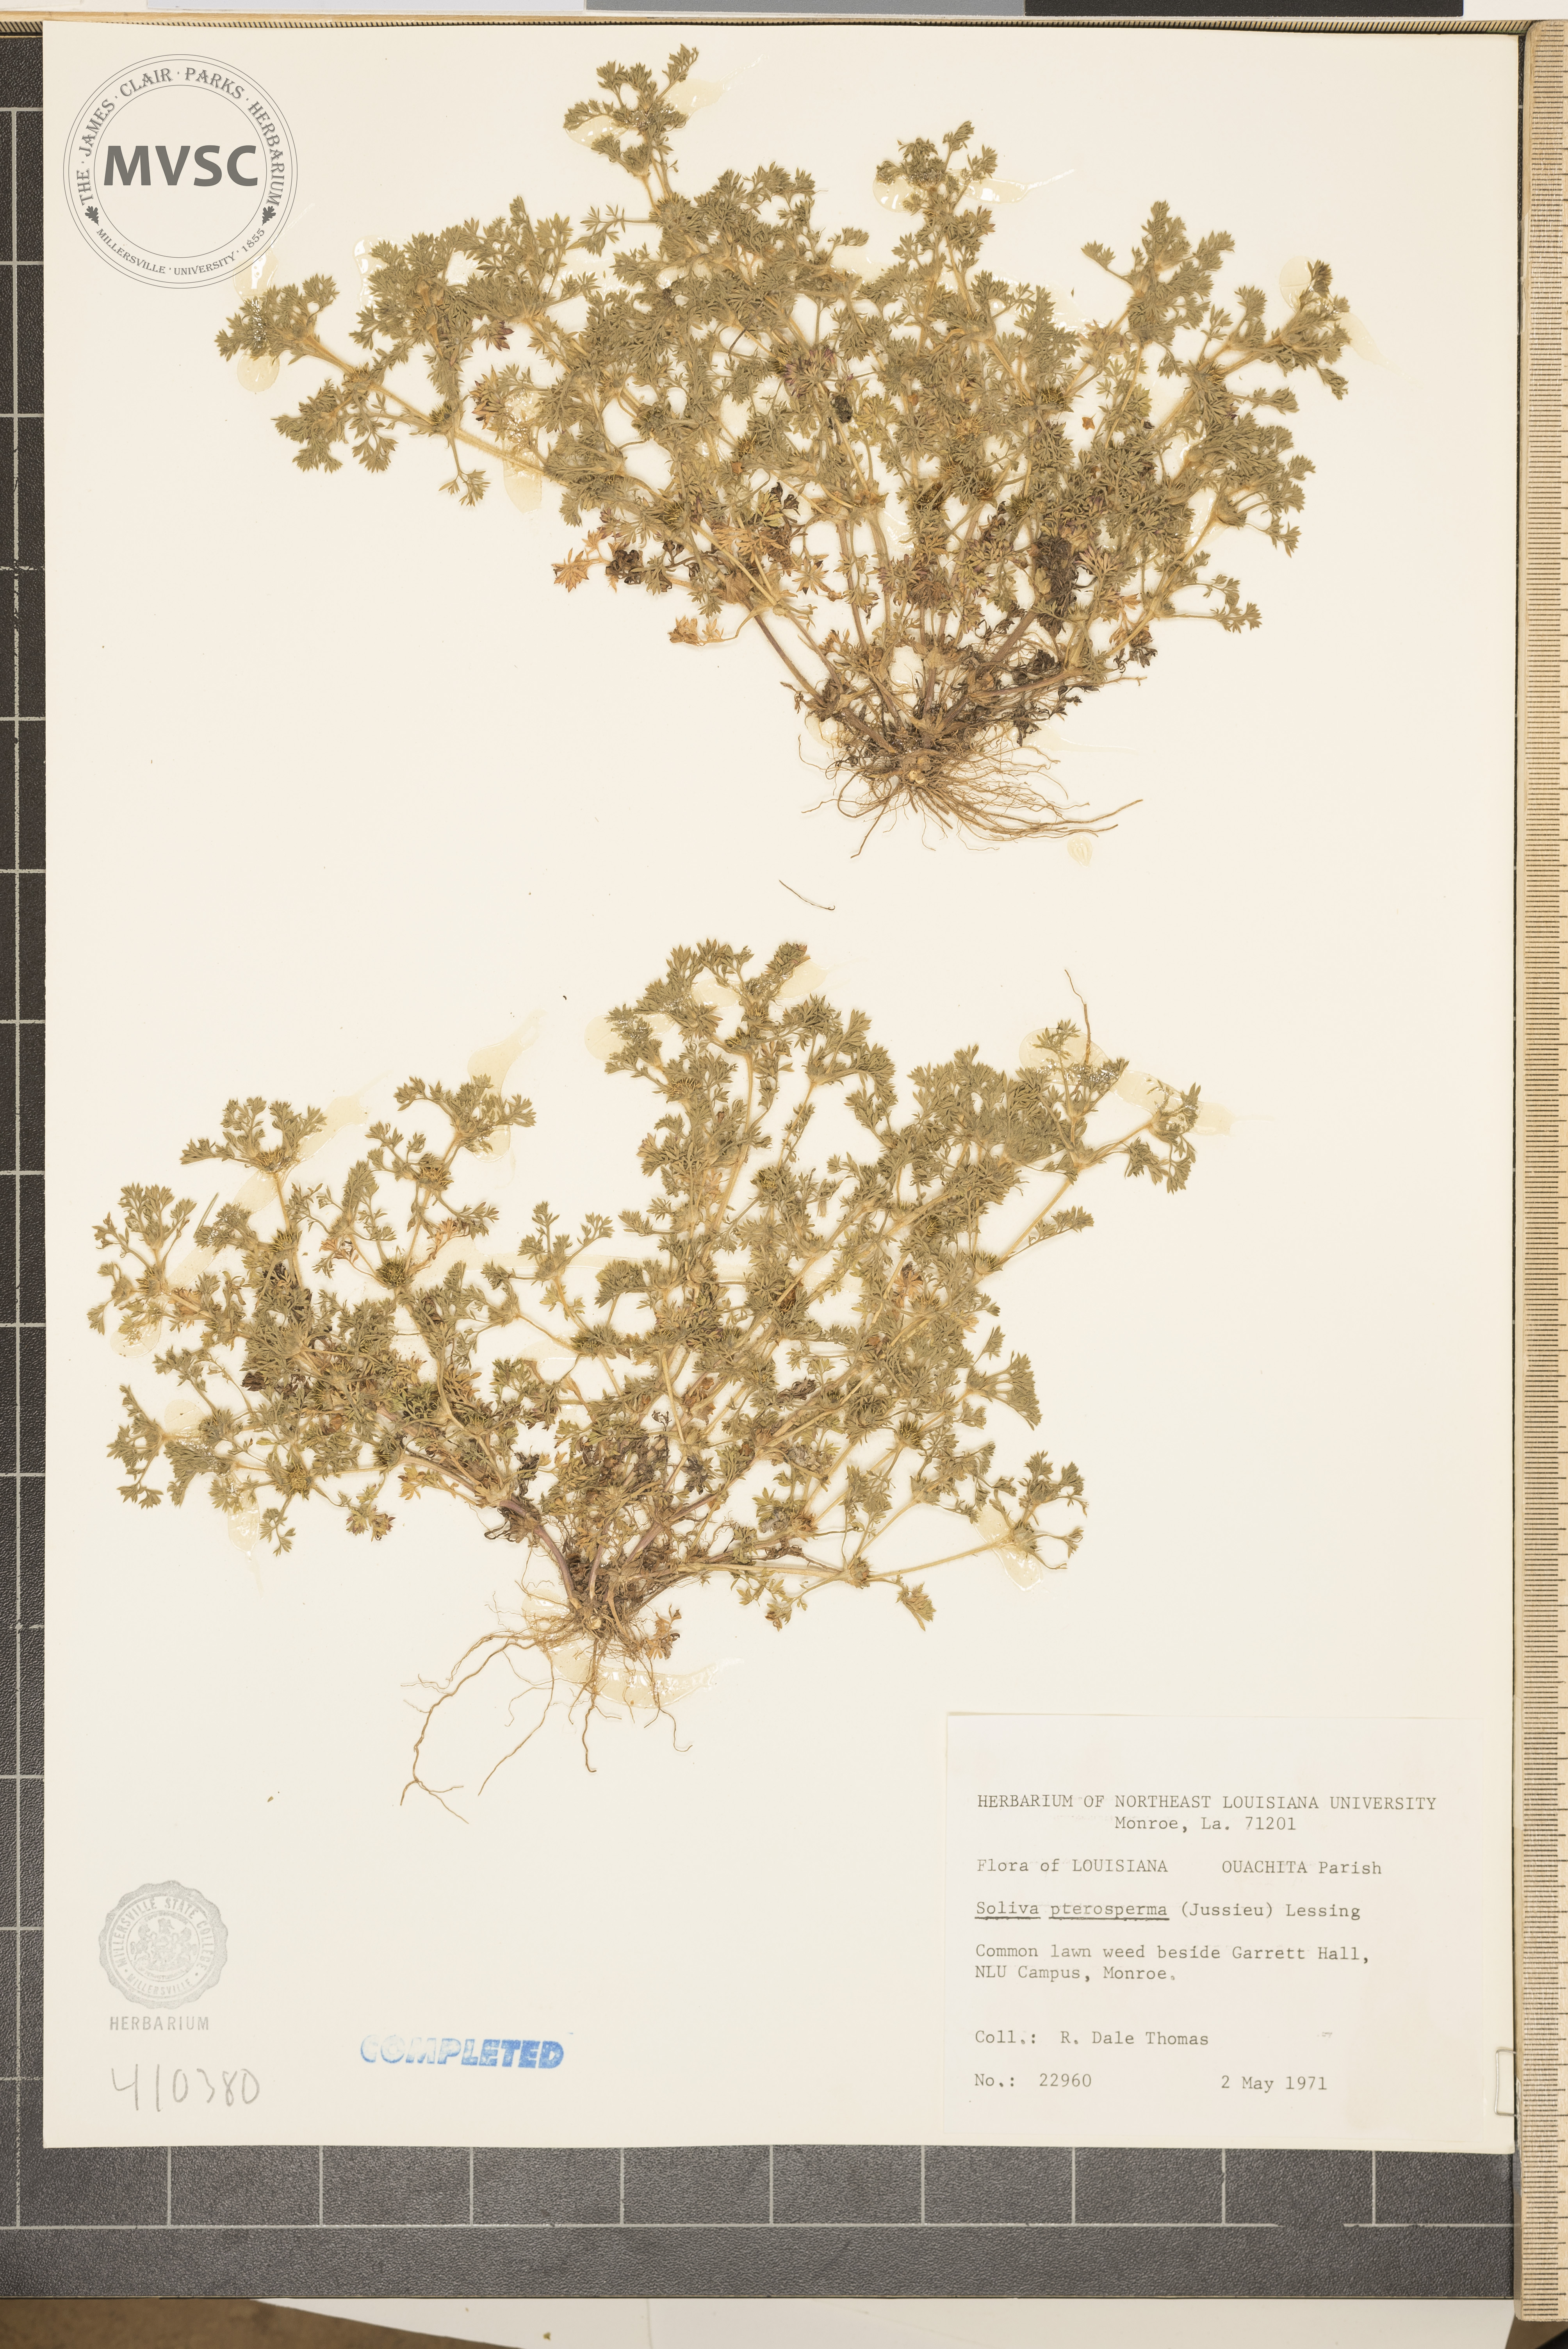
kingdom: Plantae
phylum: Tracheophyta
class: Magnoliopsida
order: Asterales
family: Asteraceae
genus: Soliva
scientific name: Soliva sessilis
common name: Field burrweed
